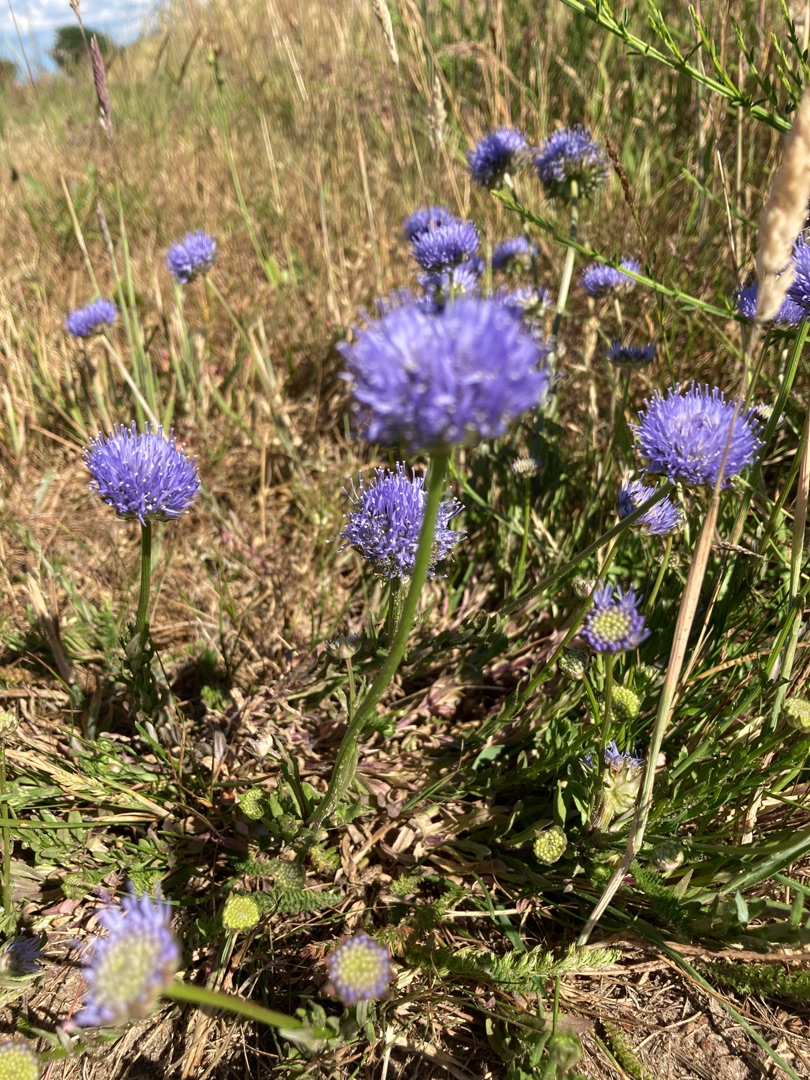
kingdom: Plantae
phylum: Tracheophyta
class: Magnoliopsida
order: Asterales
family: Campanulaceae
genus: Jasione
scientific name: Jasione montana
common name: Blåmunke
